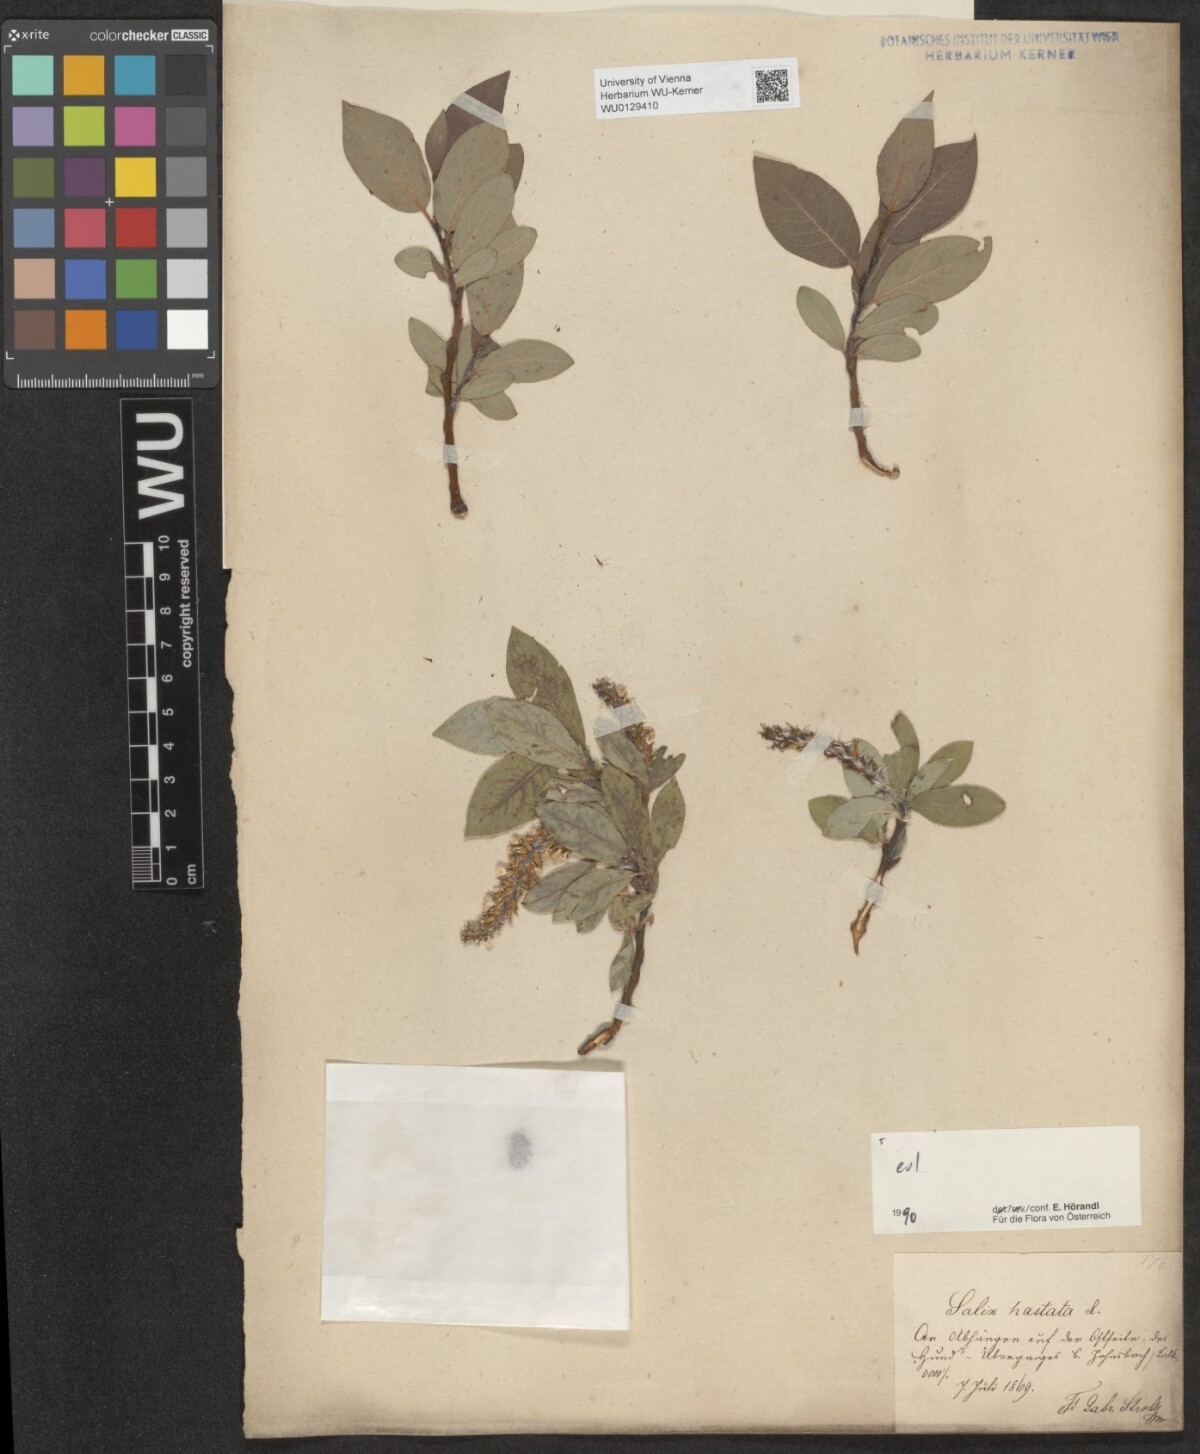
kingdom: Plantae
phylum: Tracheophyta
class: Magnoliopsida
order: Malpighiales
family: Salicaceae
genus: Salix
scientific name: Salix hastata
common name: Halberd willow
